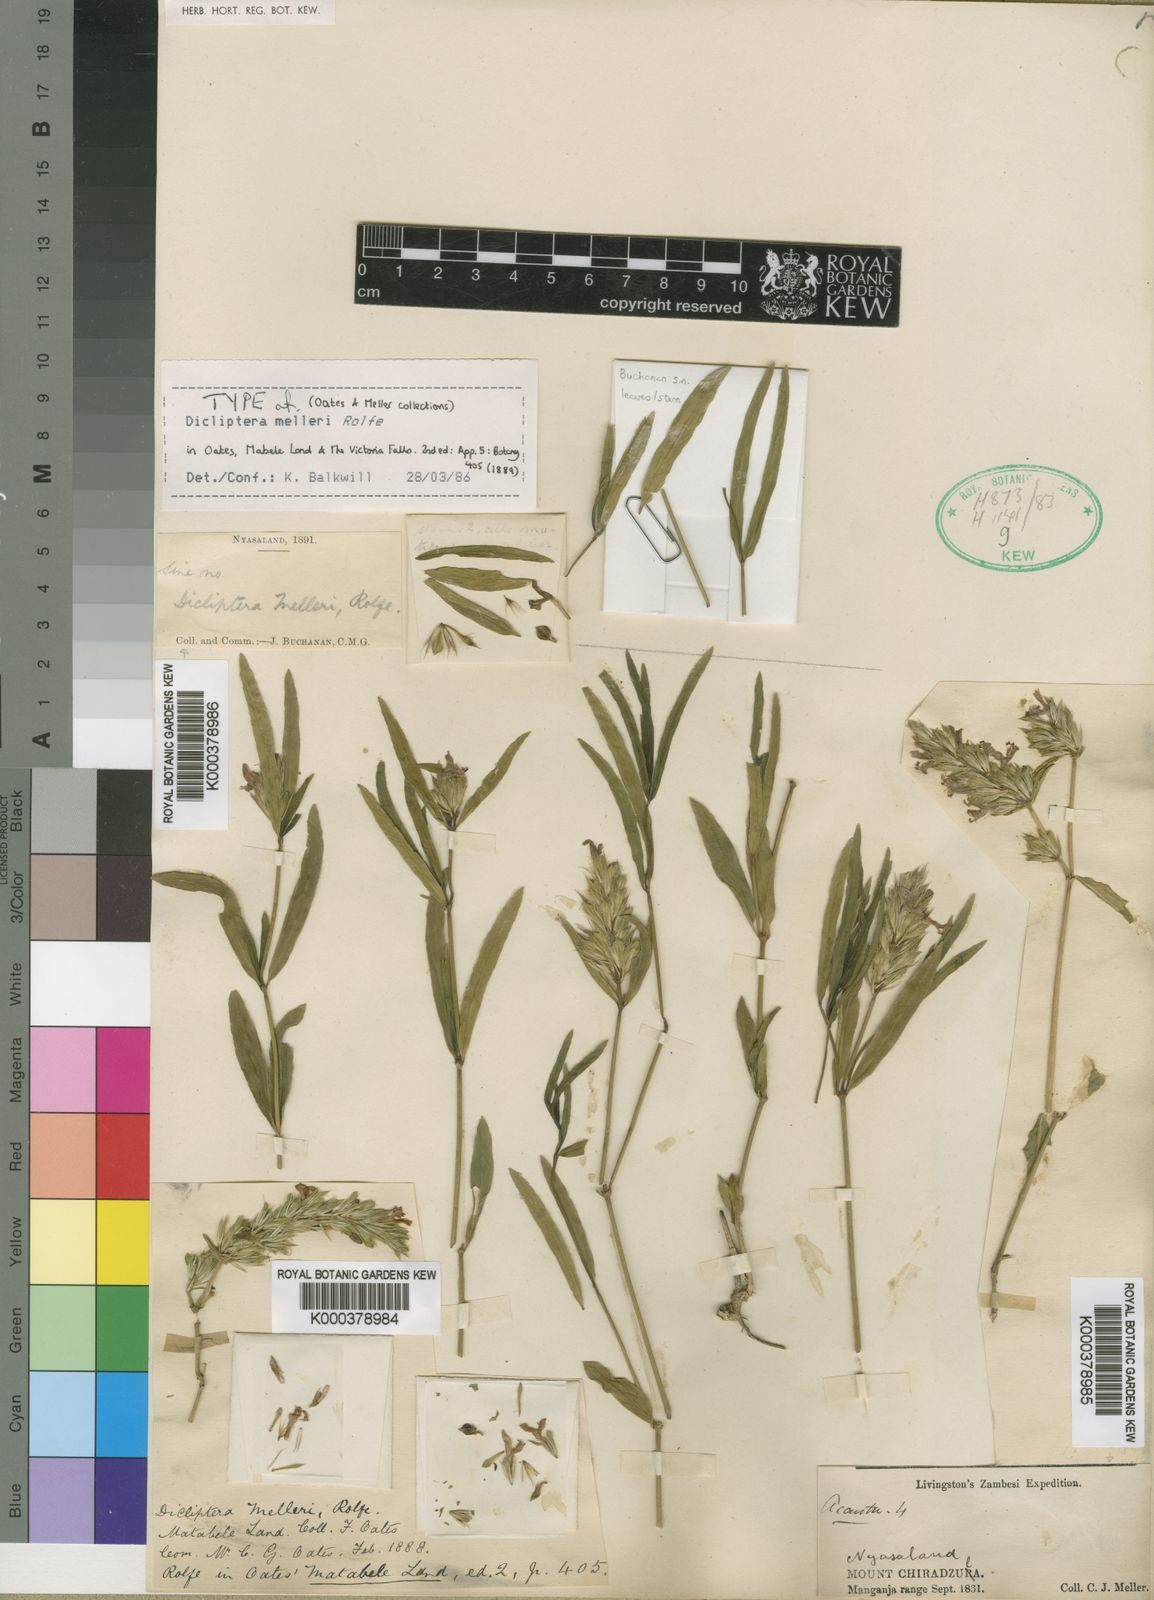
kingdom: Plantae
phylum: Tracheophyta
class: Magnoliopsida
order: Lamiales
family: Acanthaceae
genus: Dicliptera
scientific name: Dicliptera melleri
